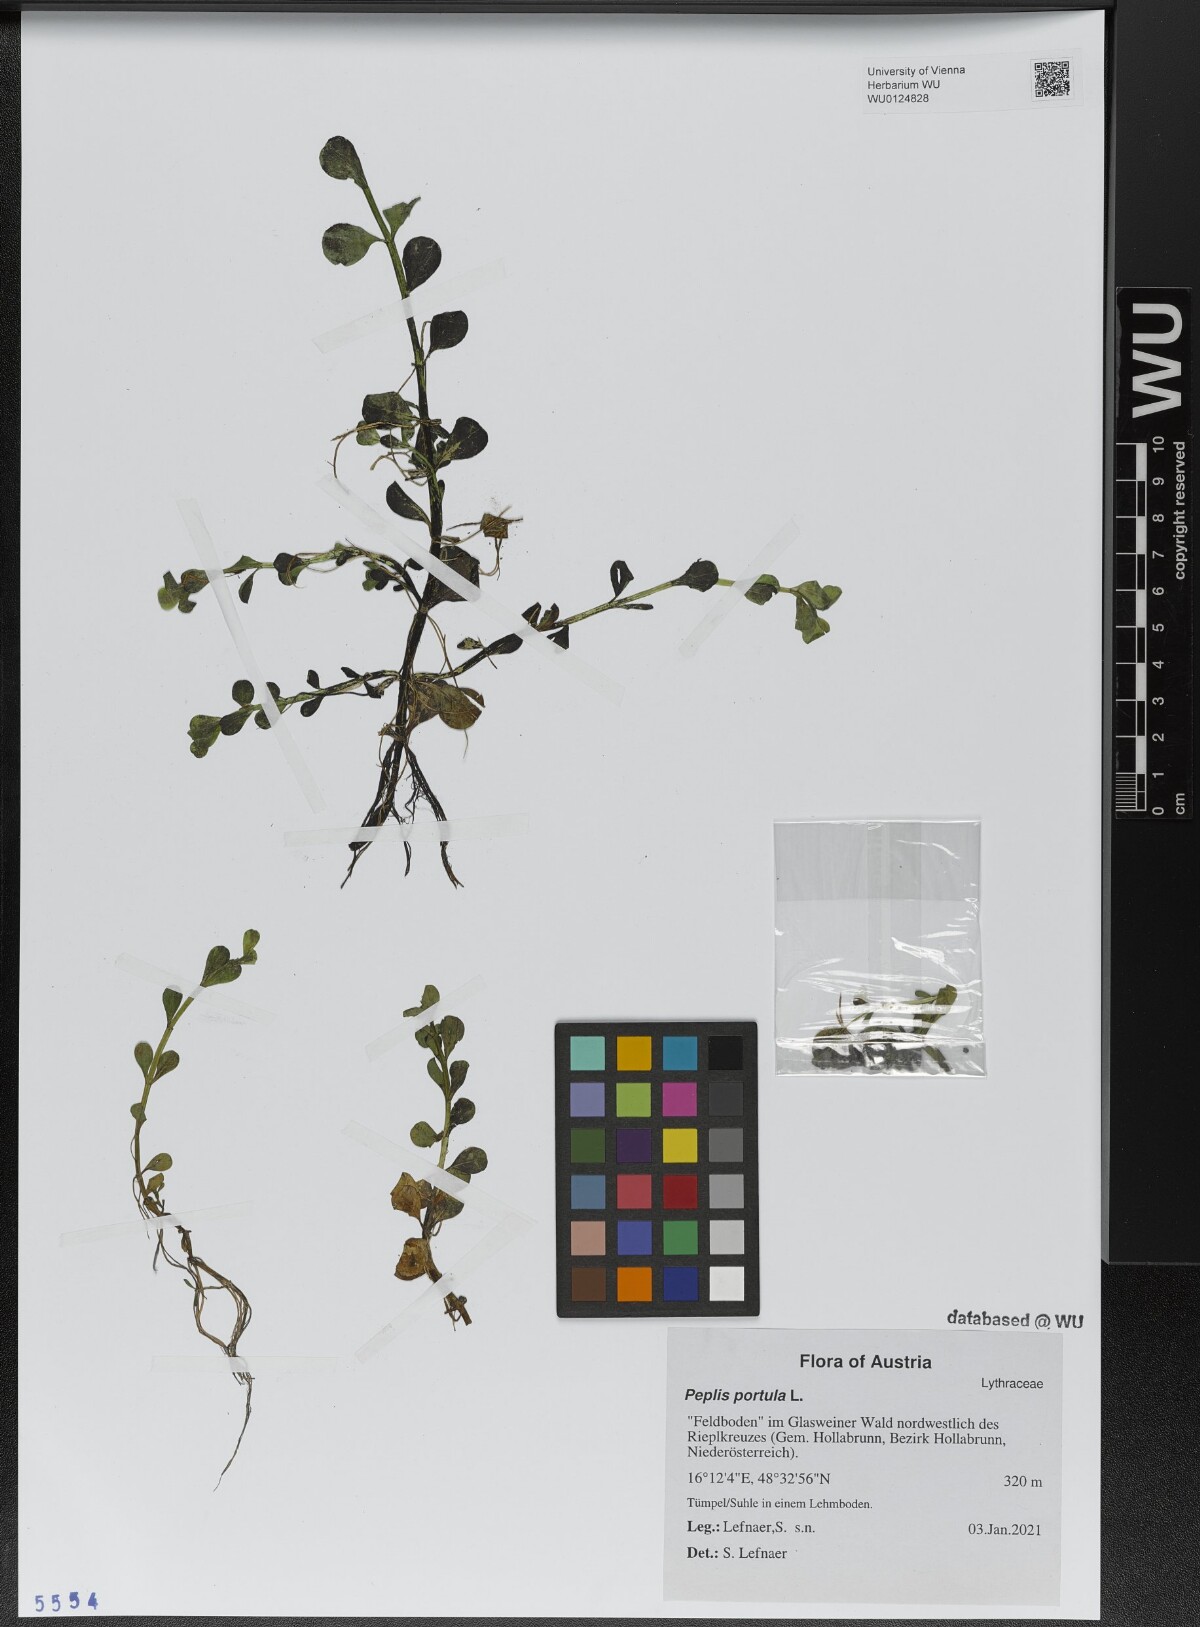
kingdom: Plantae
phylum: Tracheophyta
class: Magnoliopsida
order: Myrtales
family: Lythraceae
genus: Lythrum
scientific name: Lythrum portula
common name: Water purslane
